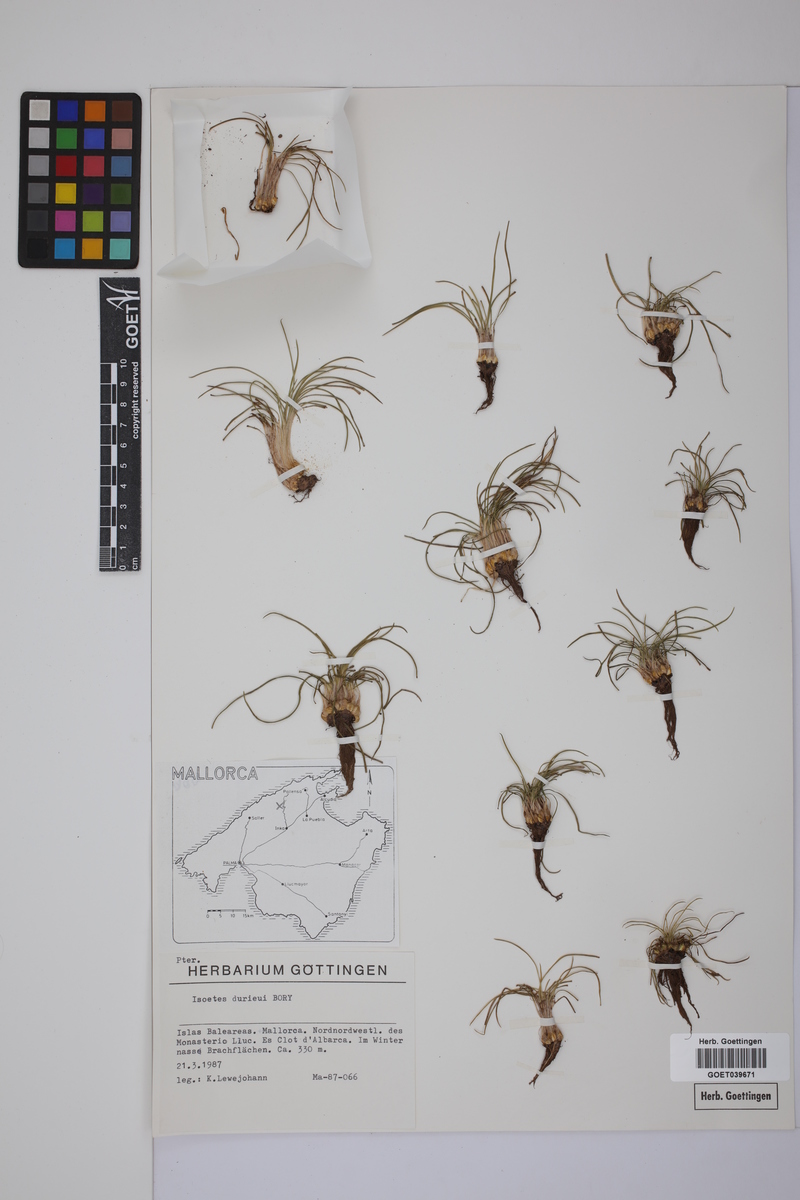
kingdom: Plantae
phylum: Tracheophyta
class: Lycopodiopsida
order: Isoetales
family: Isoetaceae
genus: Isoetes
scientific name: Isoetes duriei
